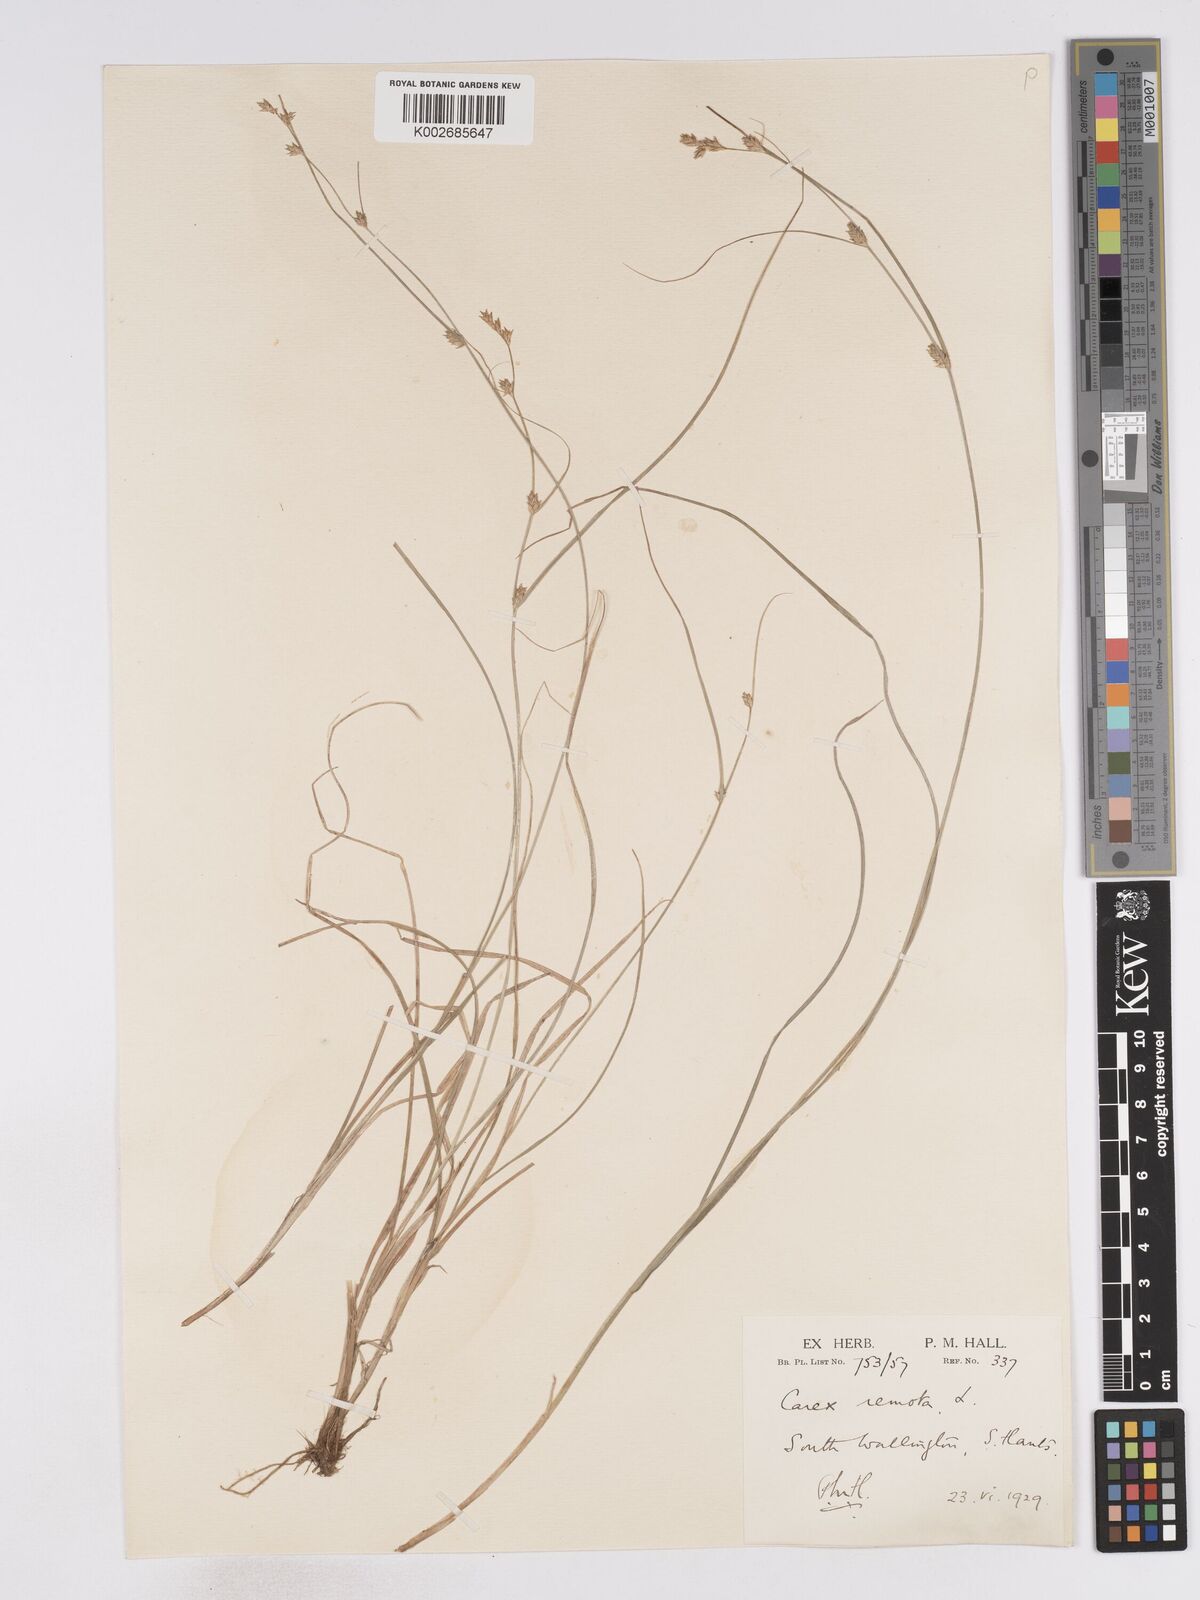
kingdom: Plantae
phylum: Tracheophyta
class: Liliopsida
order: Poales
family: Cyperaceae
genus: Carex
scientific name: Carex remota
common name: Remote sedge
